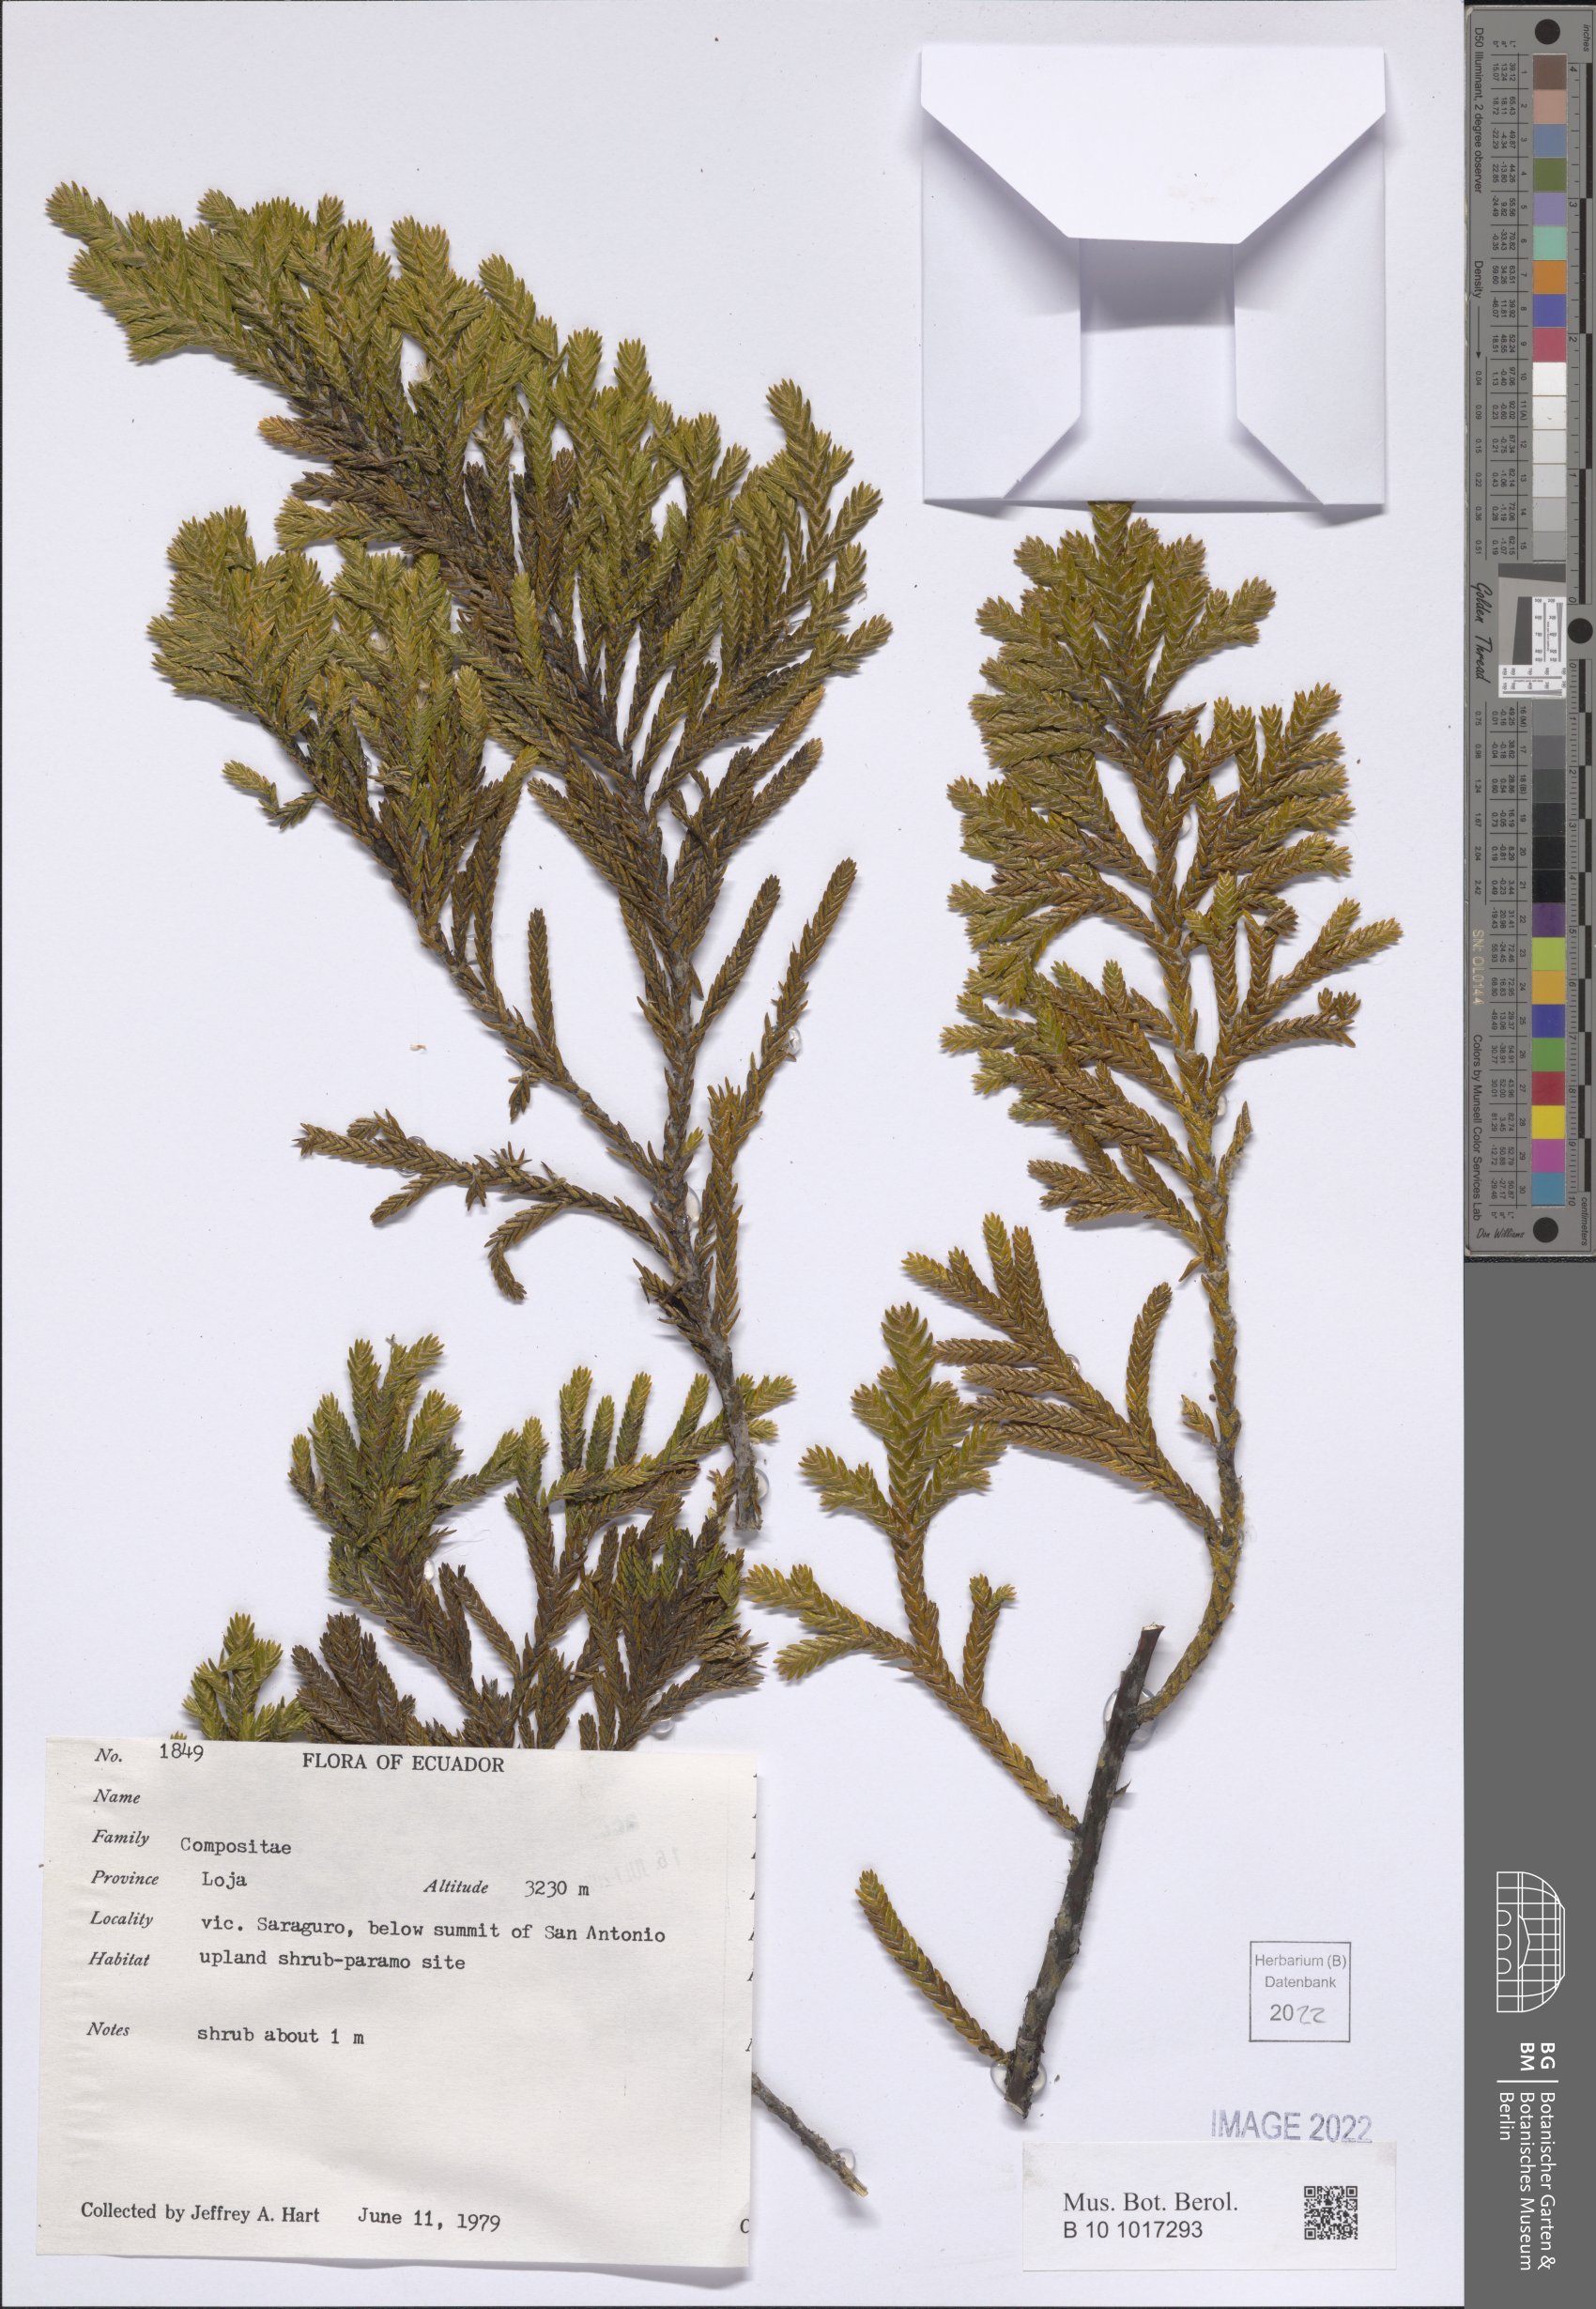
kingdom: Plantae
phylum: Tracheophyta
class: Magnoliopsida
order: Asterales
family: Asteraceae
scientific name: Asteraceae
